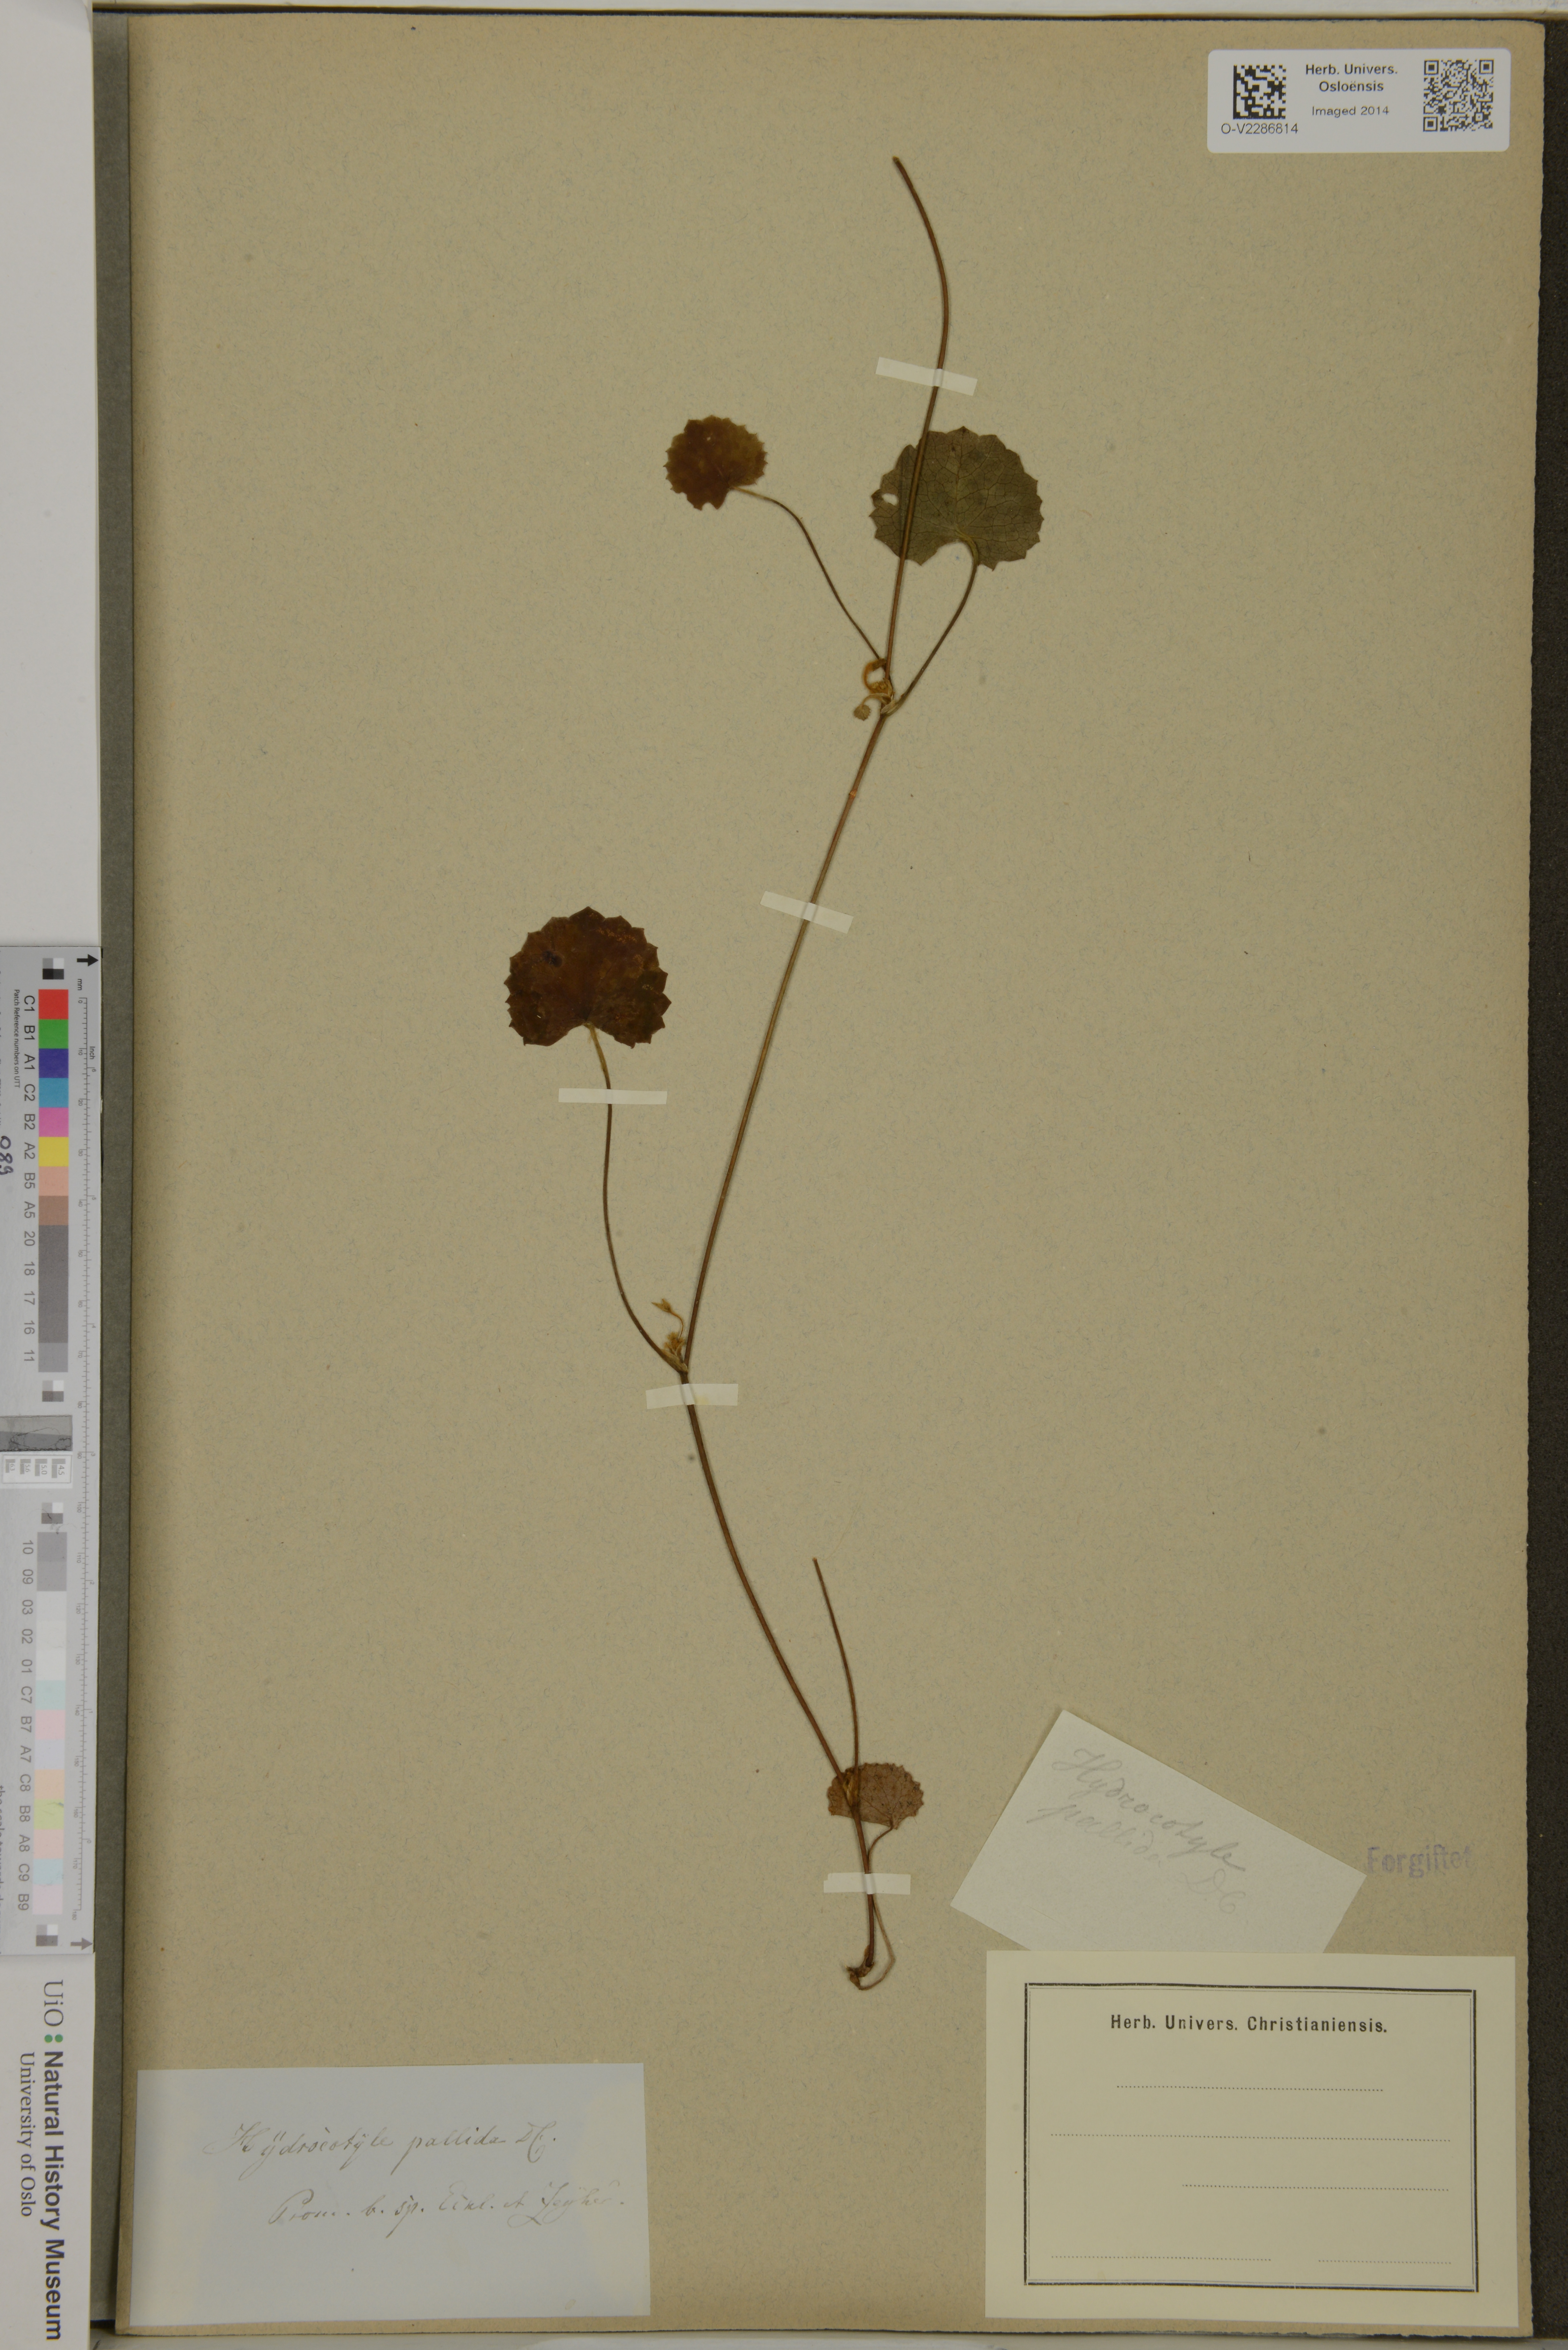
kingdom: Plantae
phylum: Tracheophyta
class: Magnoliopsida
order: Apiales
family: Apiaceae
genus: Centella
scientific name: Centella
